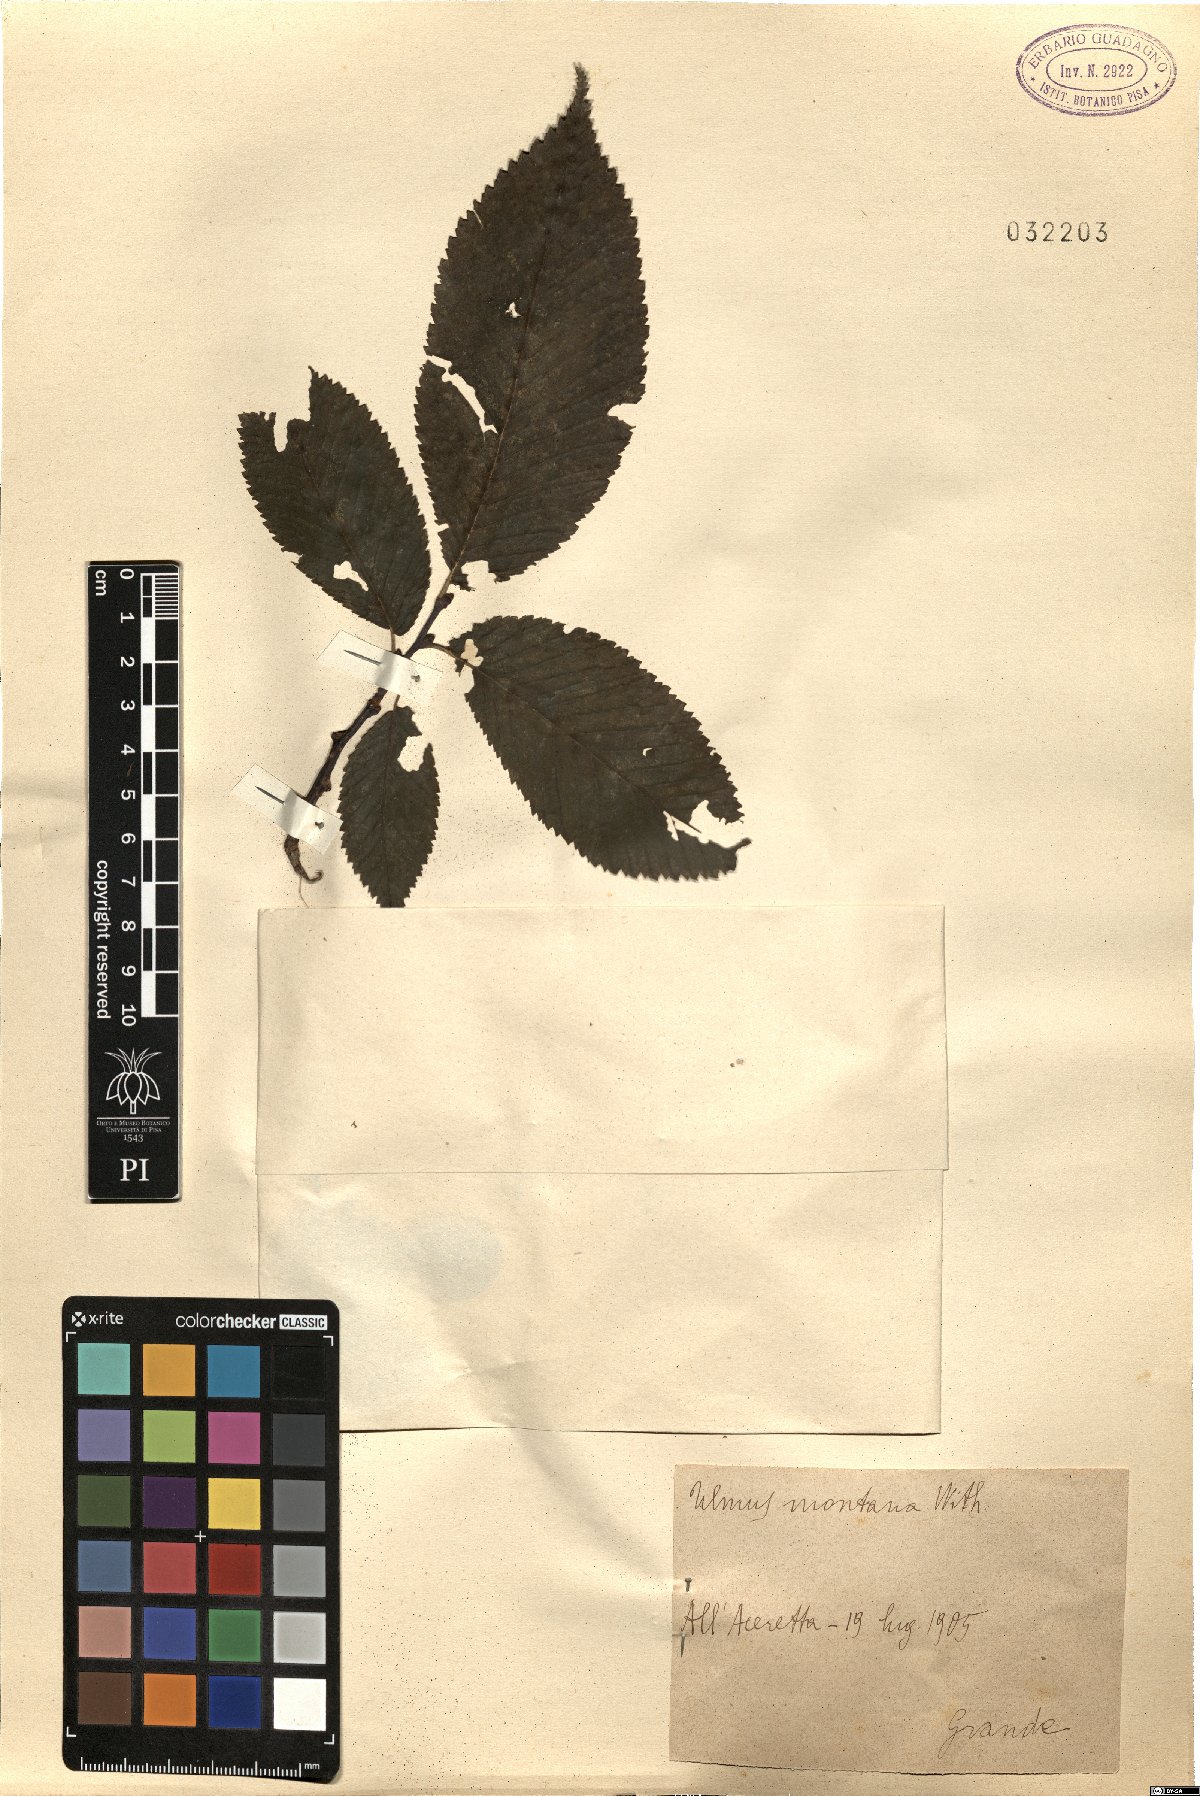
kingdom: Plantae
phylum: Tracheophyta
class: Magnoliopsida
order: Rosales
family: Ulmaceae
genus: Ulmus
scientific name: Ulmus glabra
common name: Wych elm
